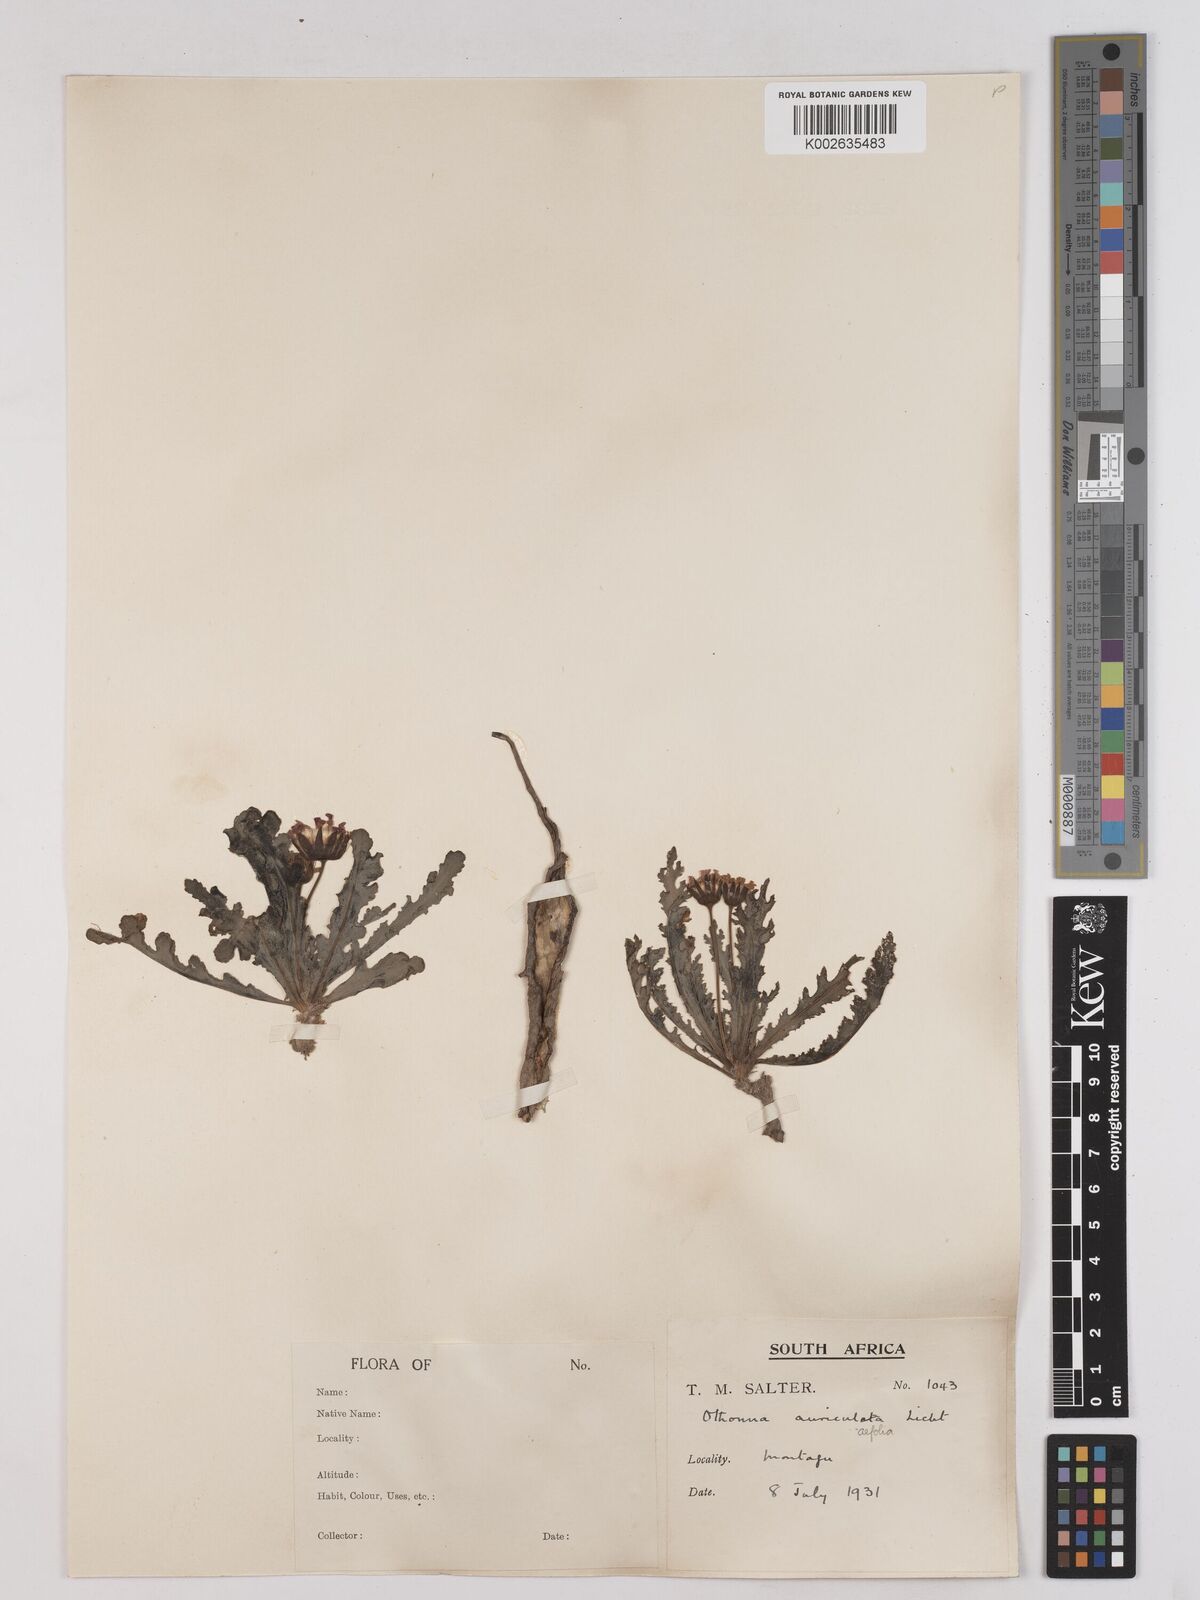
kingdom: Plantae
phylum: Tracheophyta
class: Magnoliopsida
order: Asterales
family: Asteraceae
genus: Othonna
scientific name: Othonna auriculifolia
